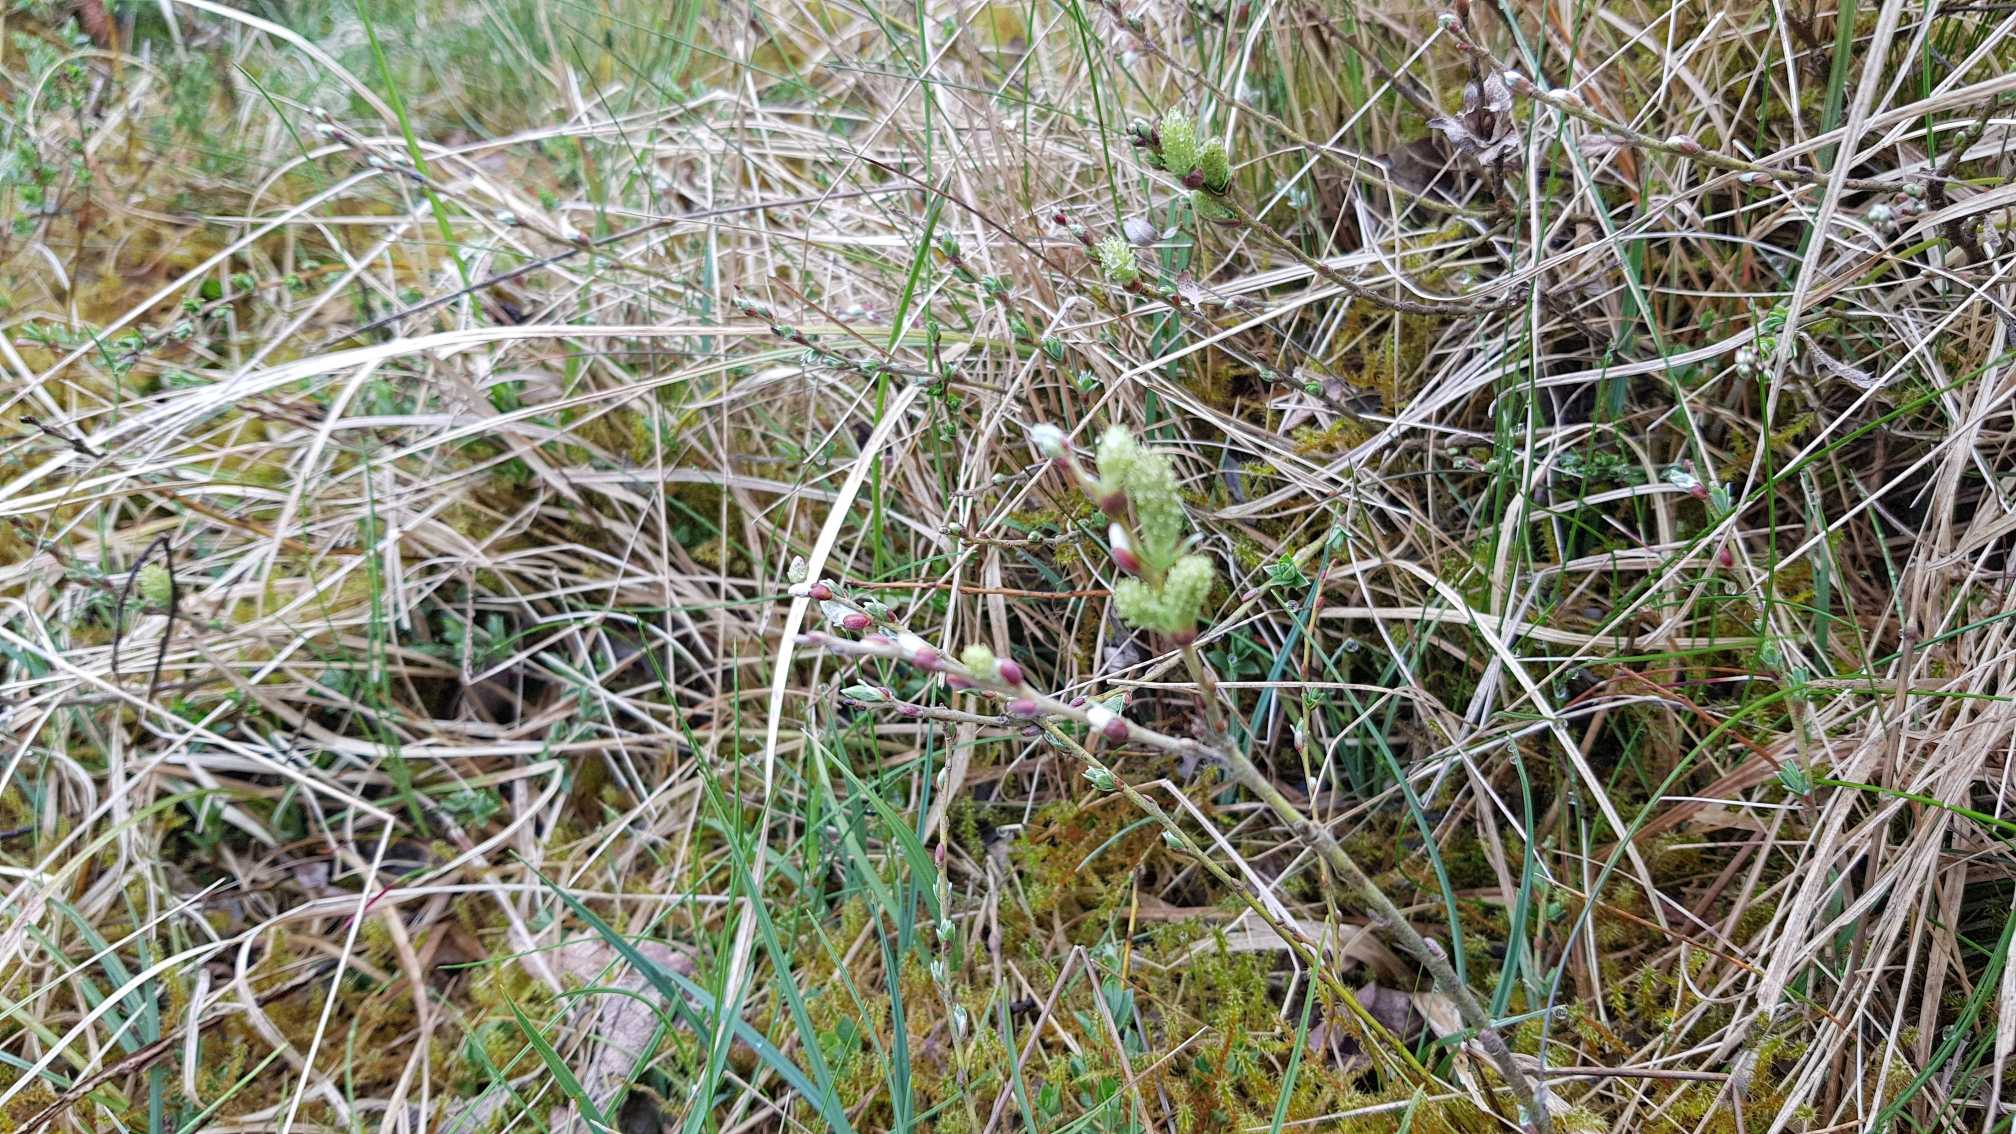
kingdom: Plantae
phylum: Tracheophyta
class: Magnoliopsida
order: Malpighiales
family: Salicaceae
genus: Salix
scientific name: Salix repens
